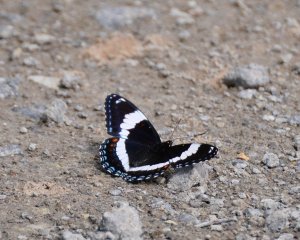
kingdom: Animalia
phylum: Arthropoda
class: Insecta
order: Lepidoptera
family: Nymphalidae
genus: Limenitis
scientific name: Limenitis arthemis
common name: Red-spotted Admiral
